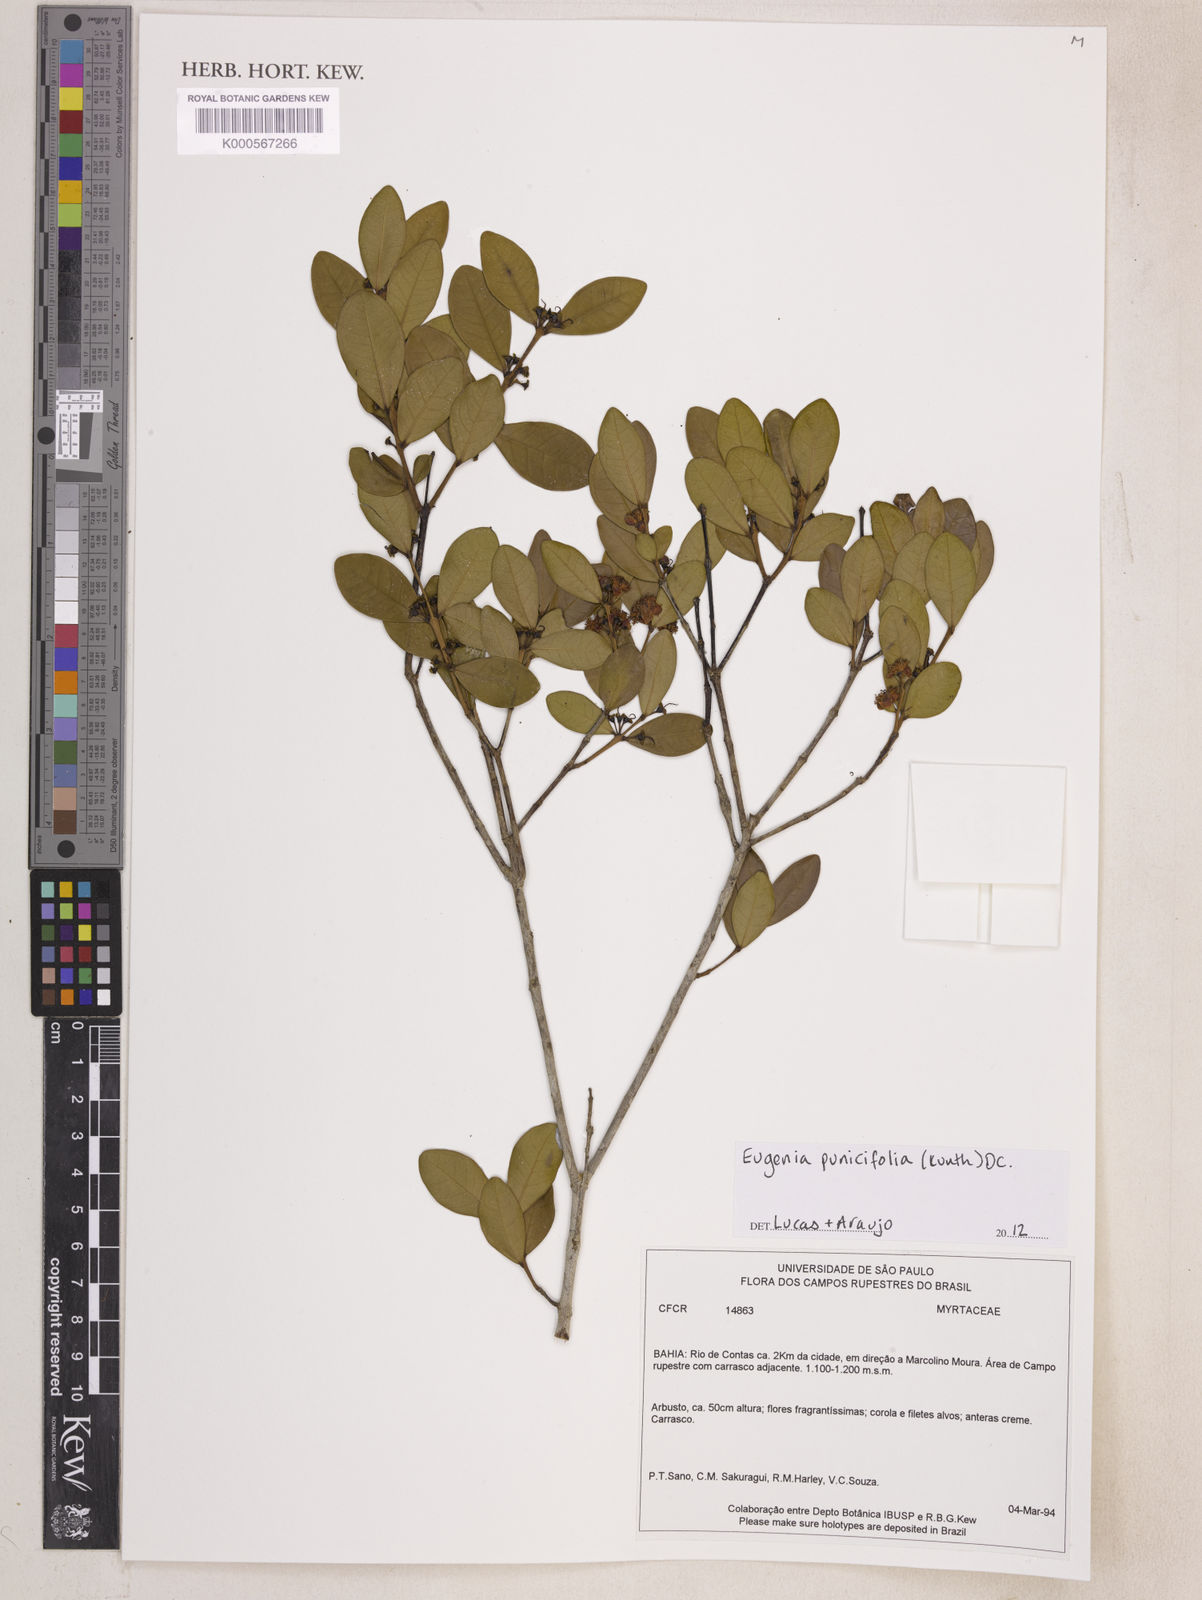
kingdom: Plantae
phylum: Tracheophyta
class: Magnoliopsida
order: Myrtales
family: Myrtaceae
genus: Eugenia
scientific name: Eugenia punicifolia
